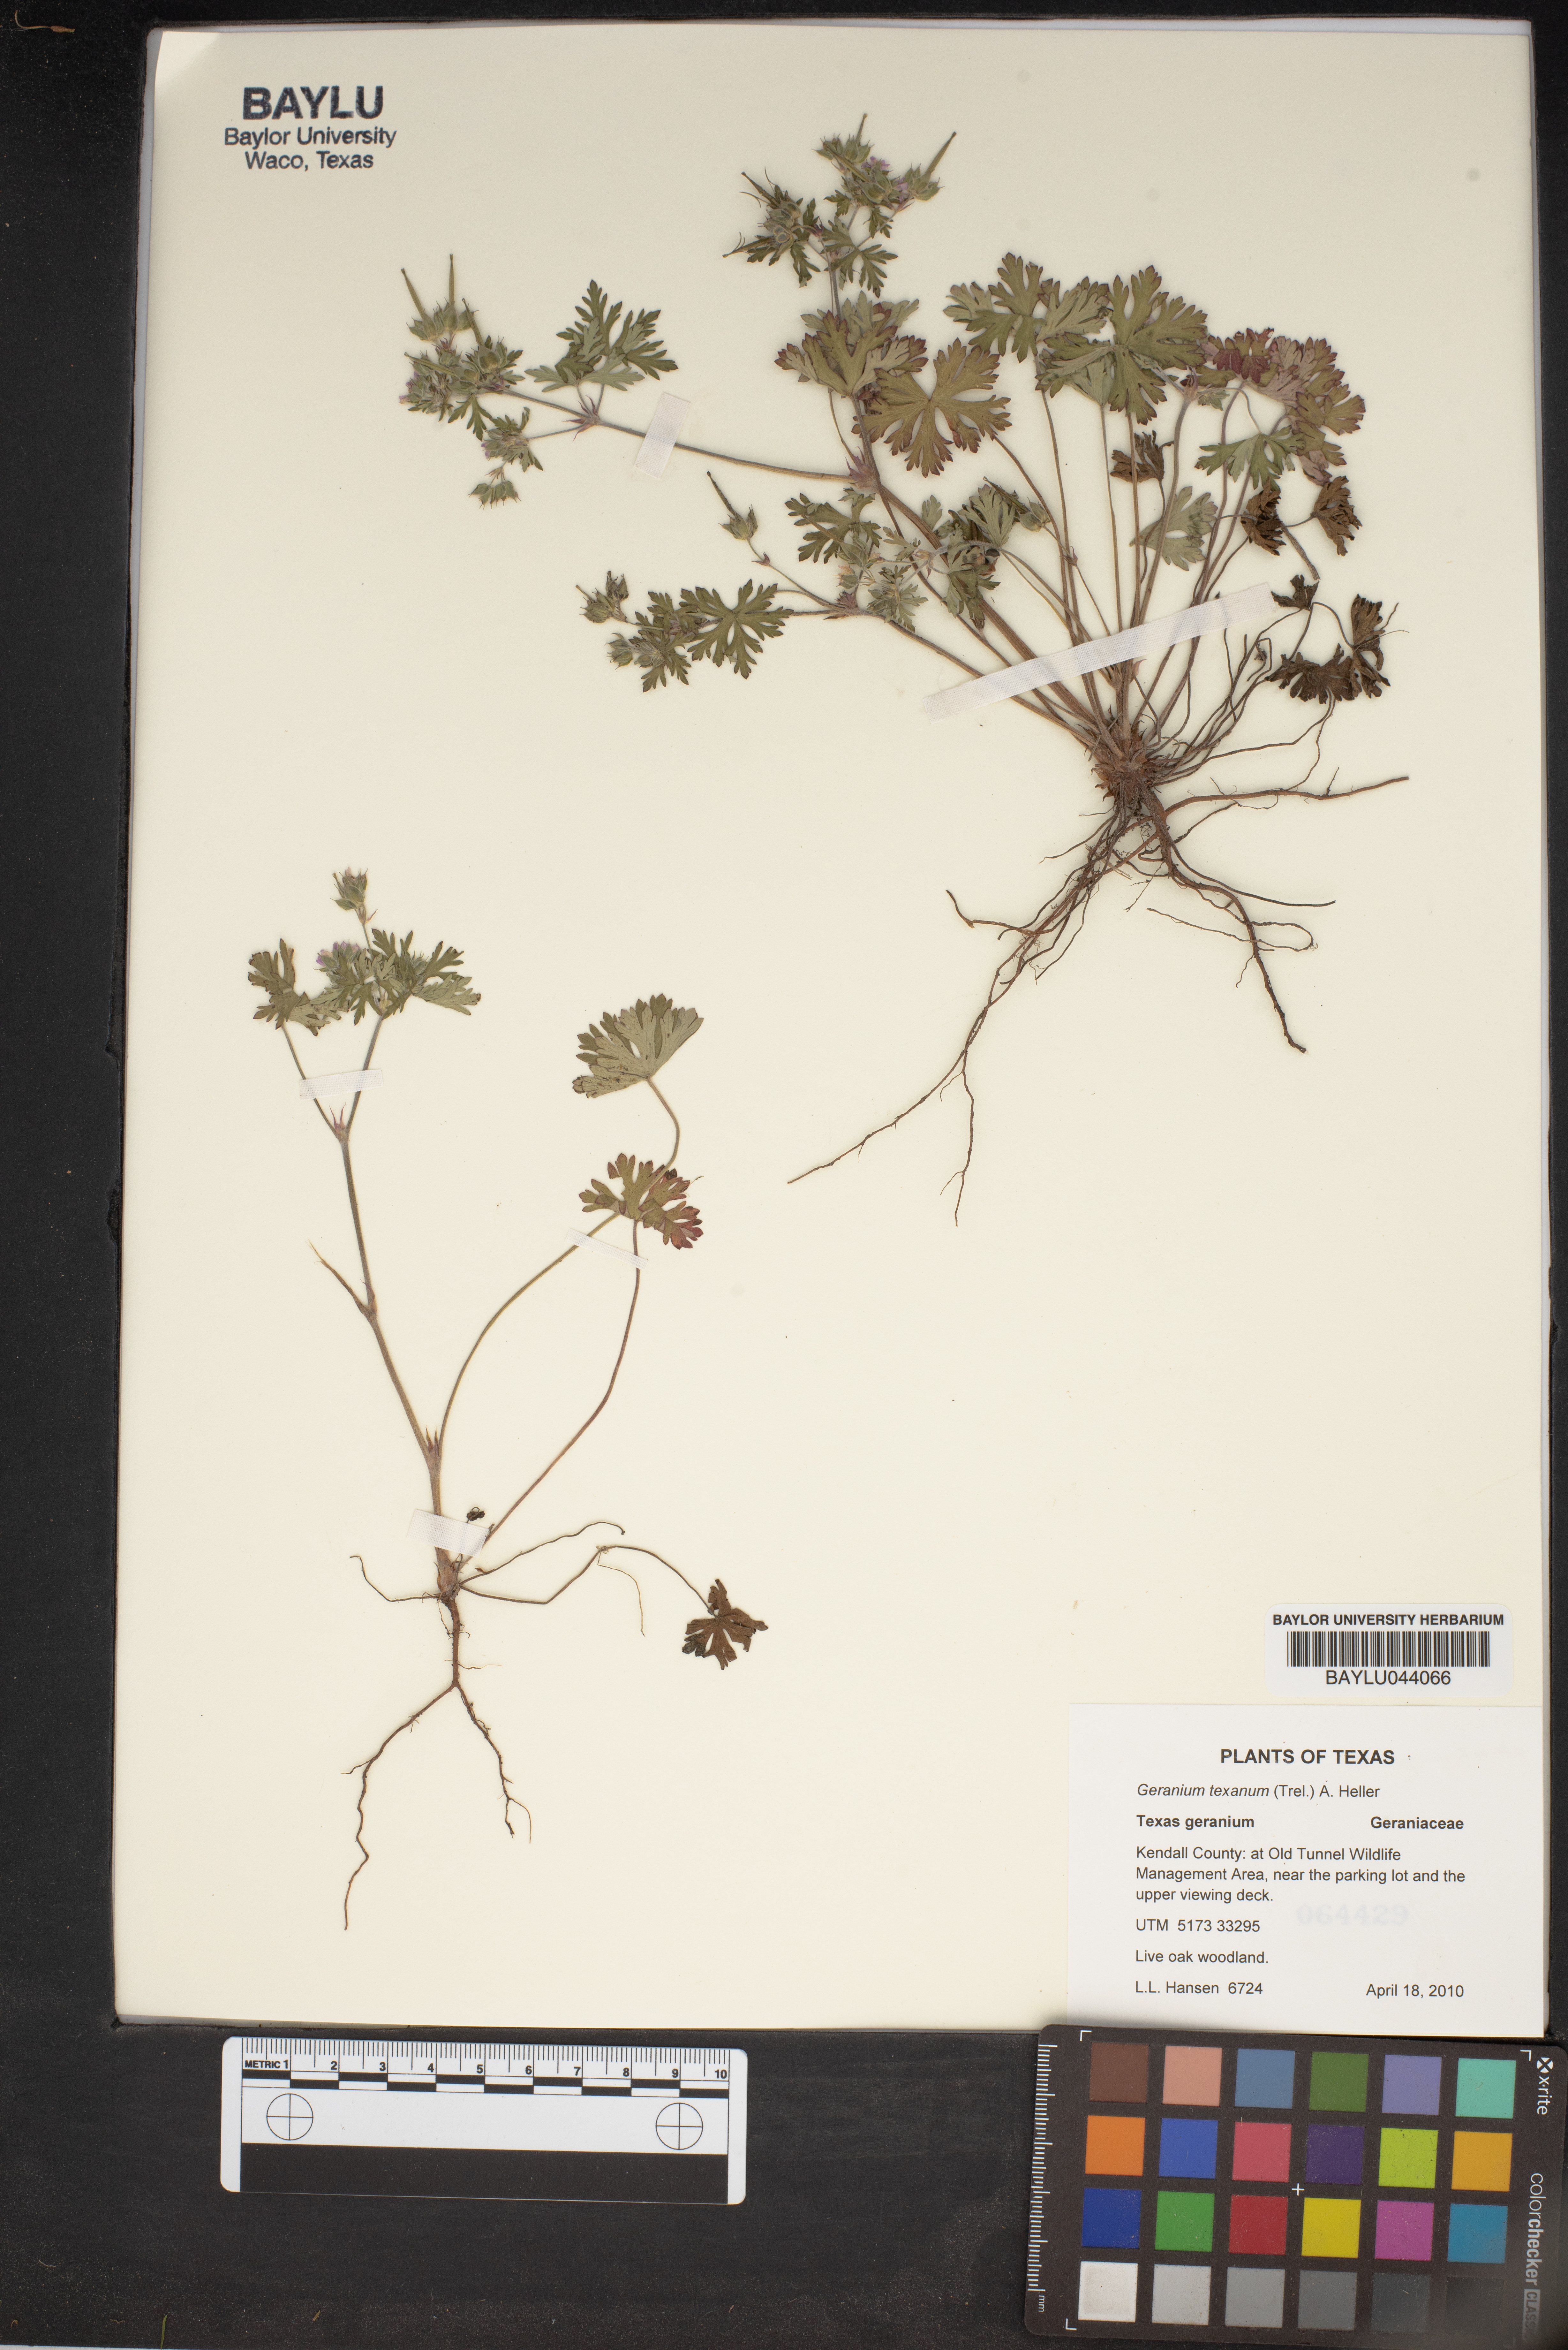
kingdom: Plantae
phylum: Tracheophyta
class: Magnoliopsida
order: Geraniales
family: Geraniaceae
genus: Geranium
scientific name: Geranium texanum
